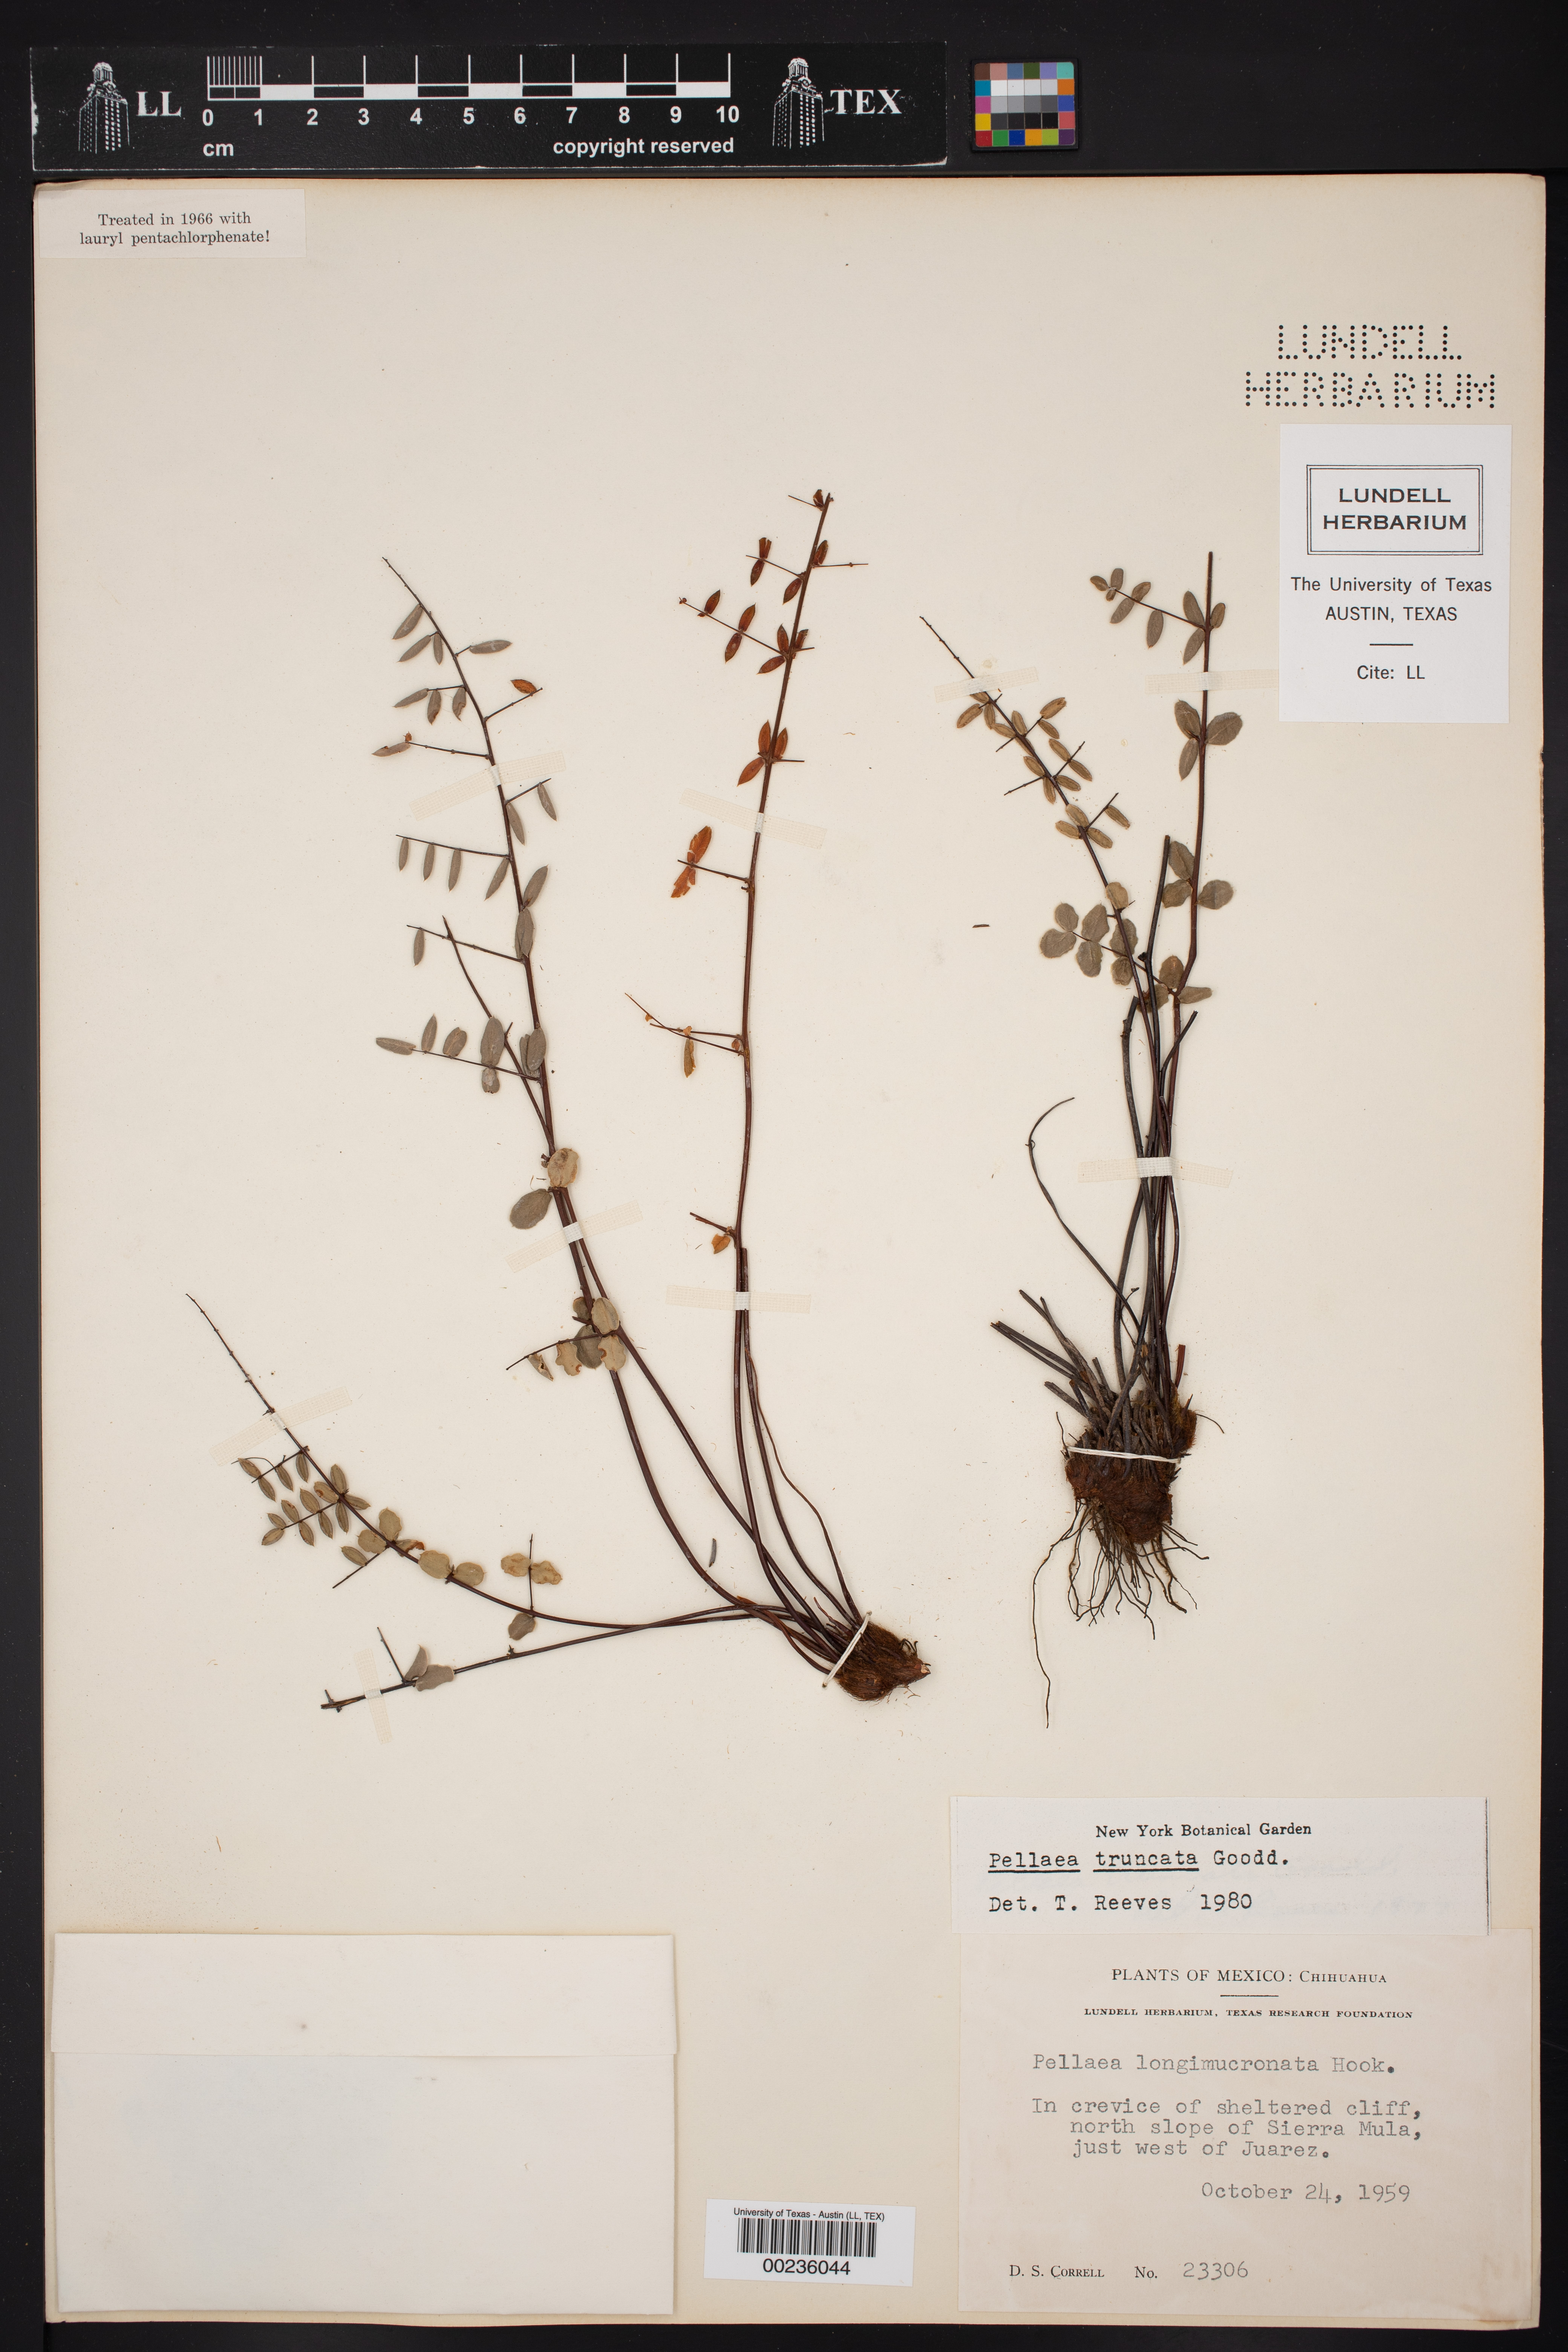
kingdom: Plantae
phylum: Tracheophyta
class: Polypodiopsida
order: Polypodiales
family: Pteridaceae
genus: Pellaea
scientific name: Pellaea truncata
